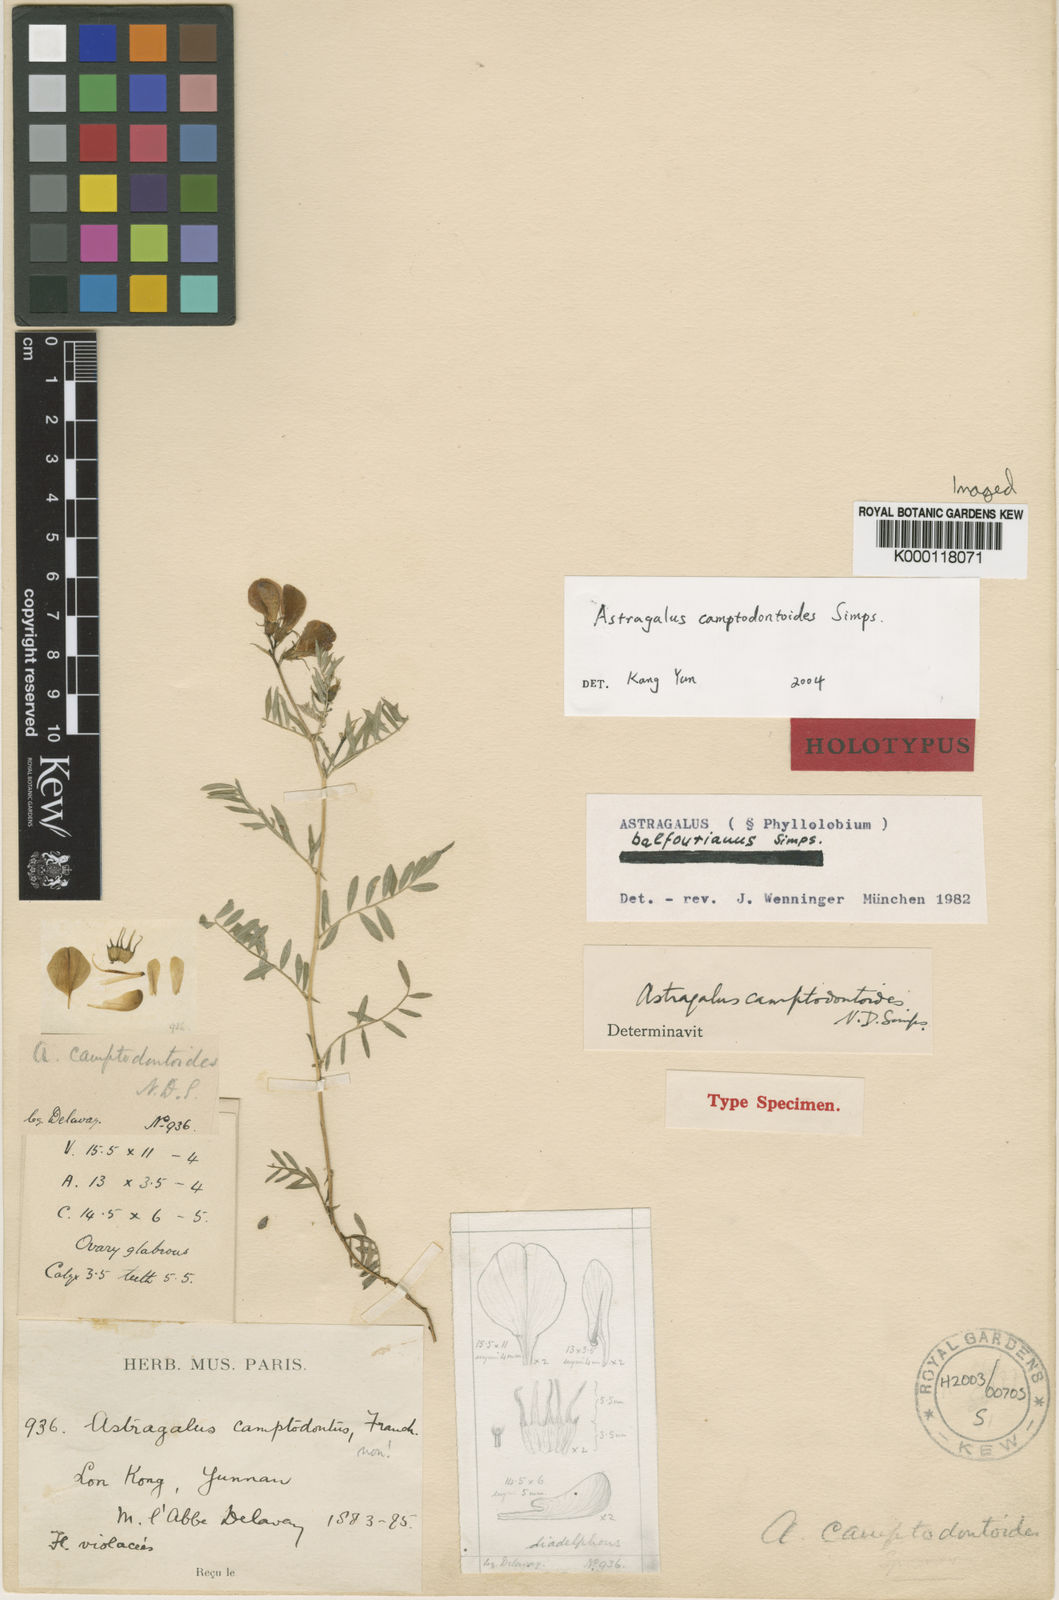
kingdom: Plantae
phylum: Tracheophyta
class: Magnoliopsida
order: Fabales
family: Fabaceae
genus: Astragalus
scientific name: Astragalus
